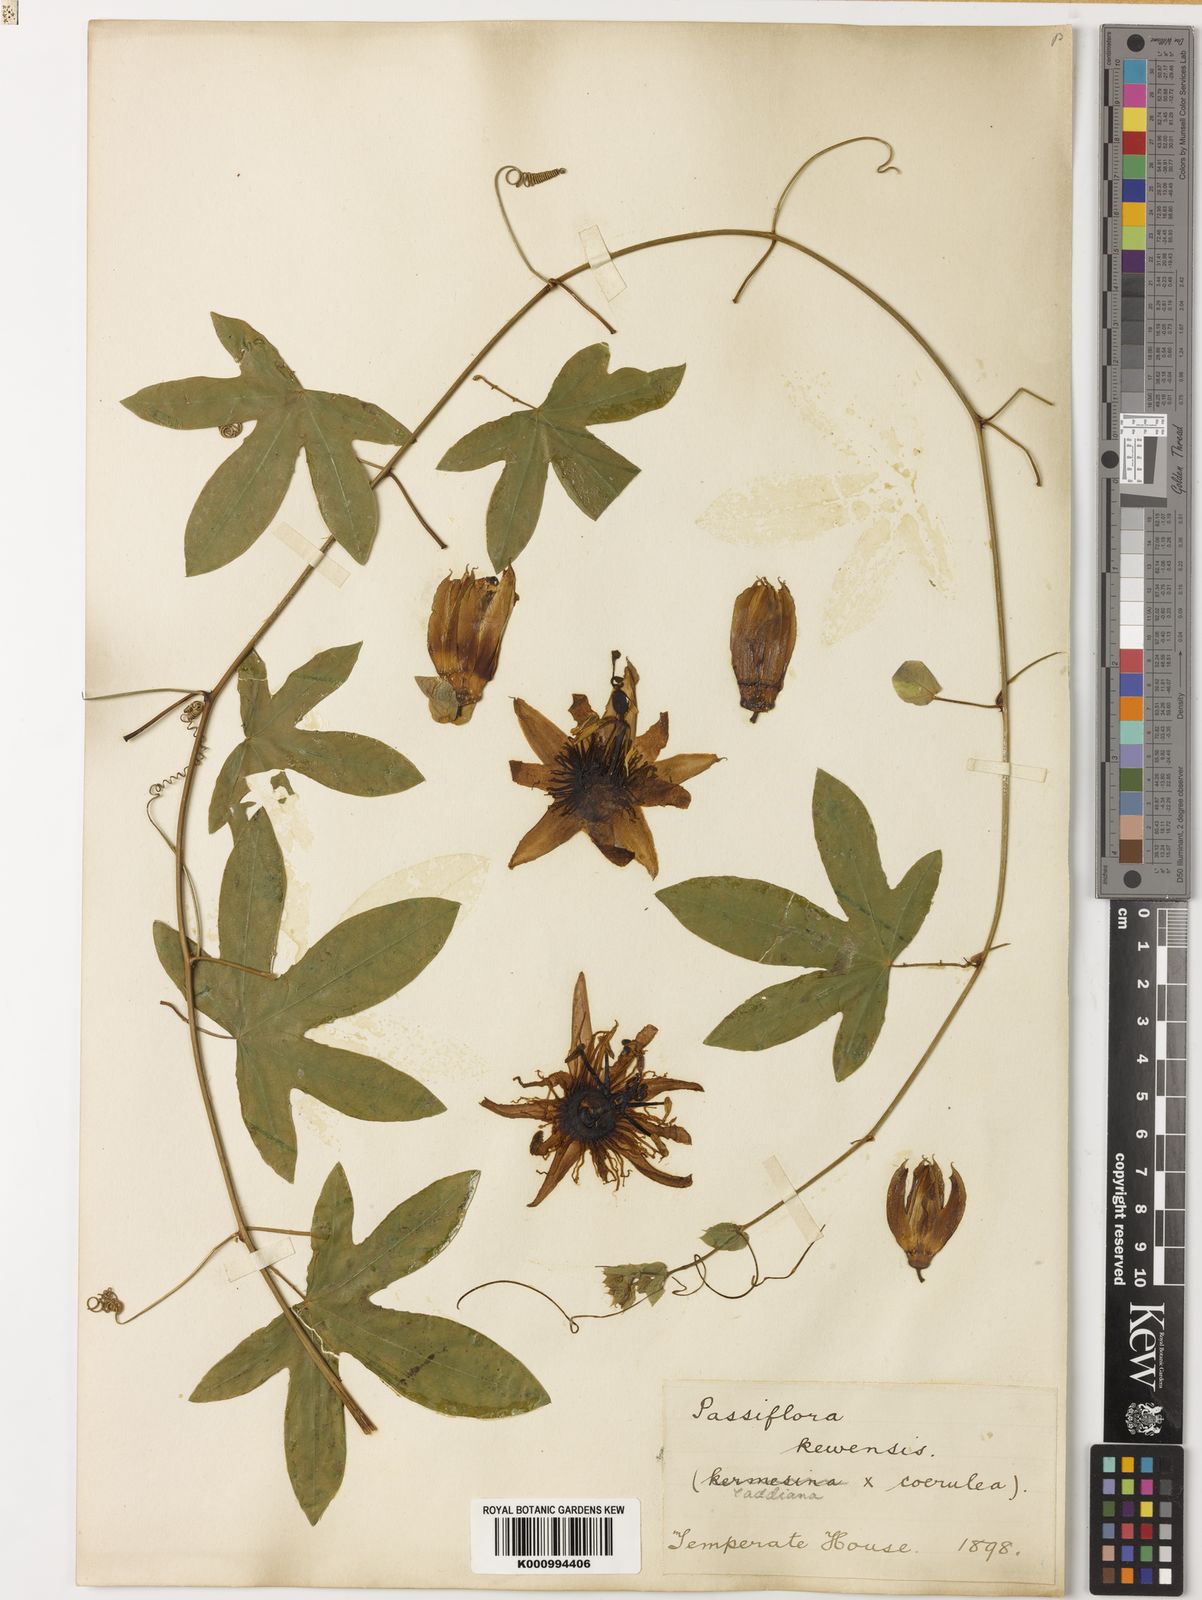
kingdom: Plantae
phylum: Tracheophyta
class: Magnoliopsida
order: Malpighiales
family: Passifloraceae
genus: Passiflora
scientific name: Passiflora
